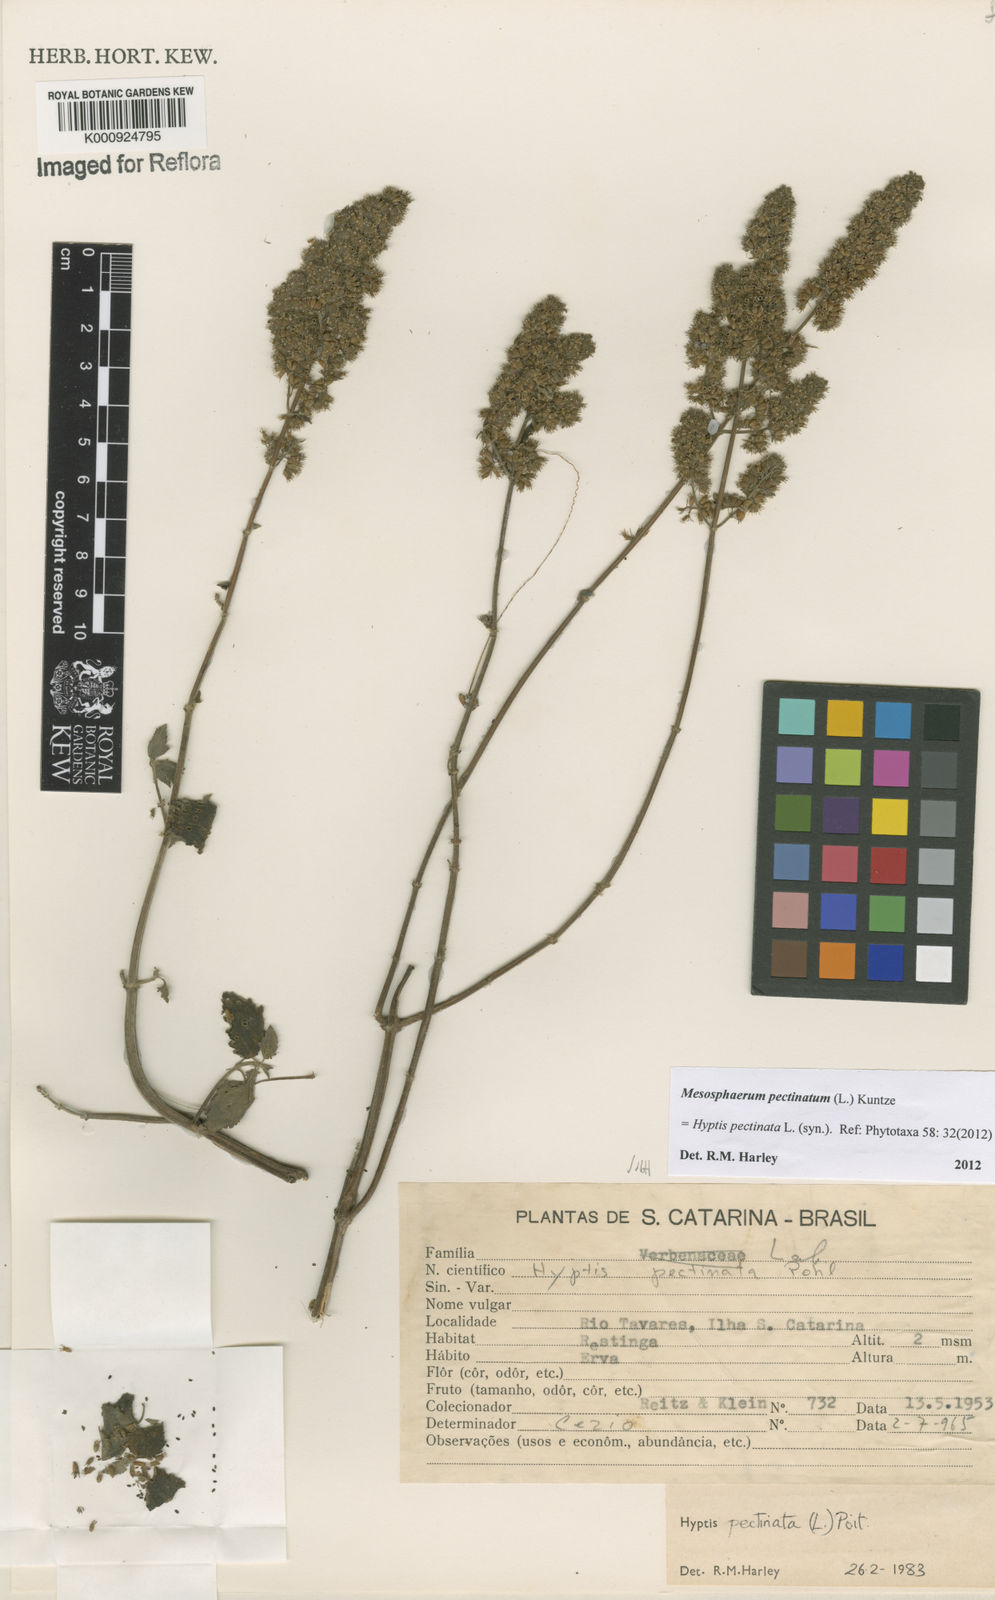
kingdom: Plantae
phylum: Tracheophyta
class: Magnoliopsida
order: Lamiales
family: Lamiaceae
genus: Mesosphaerum
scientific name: Mesosphaerum pectinatum
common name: Comb hyptis
